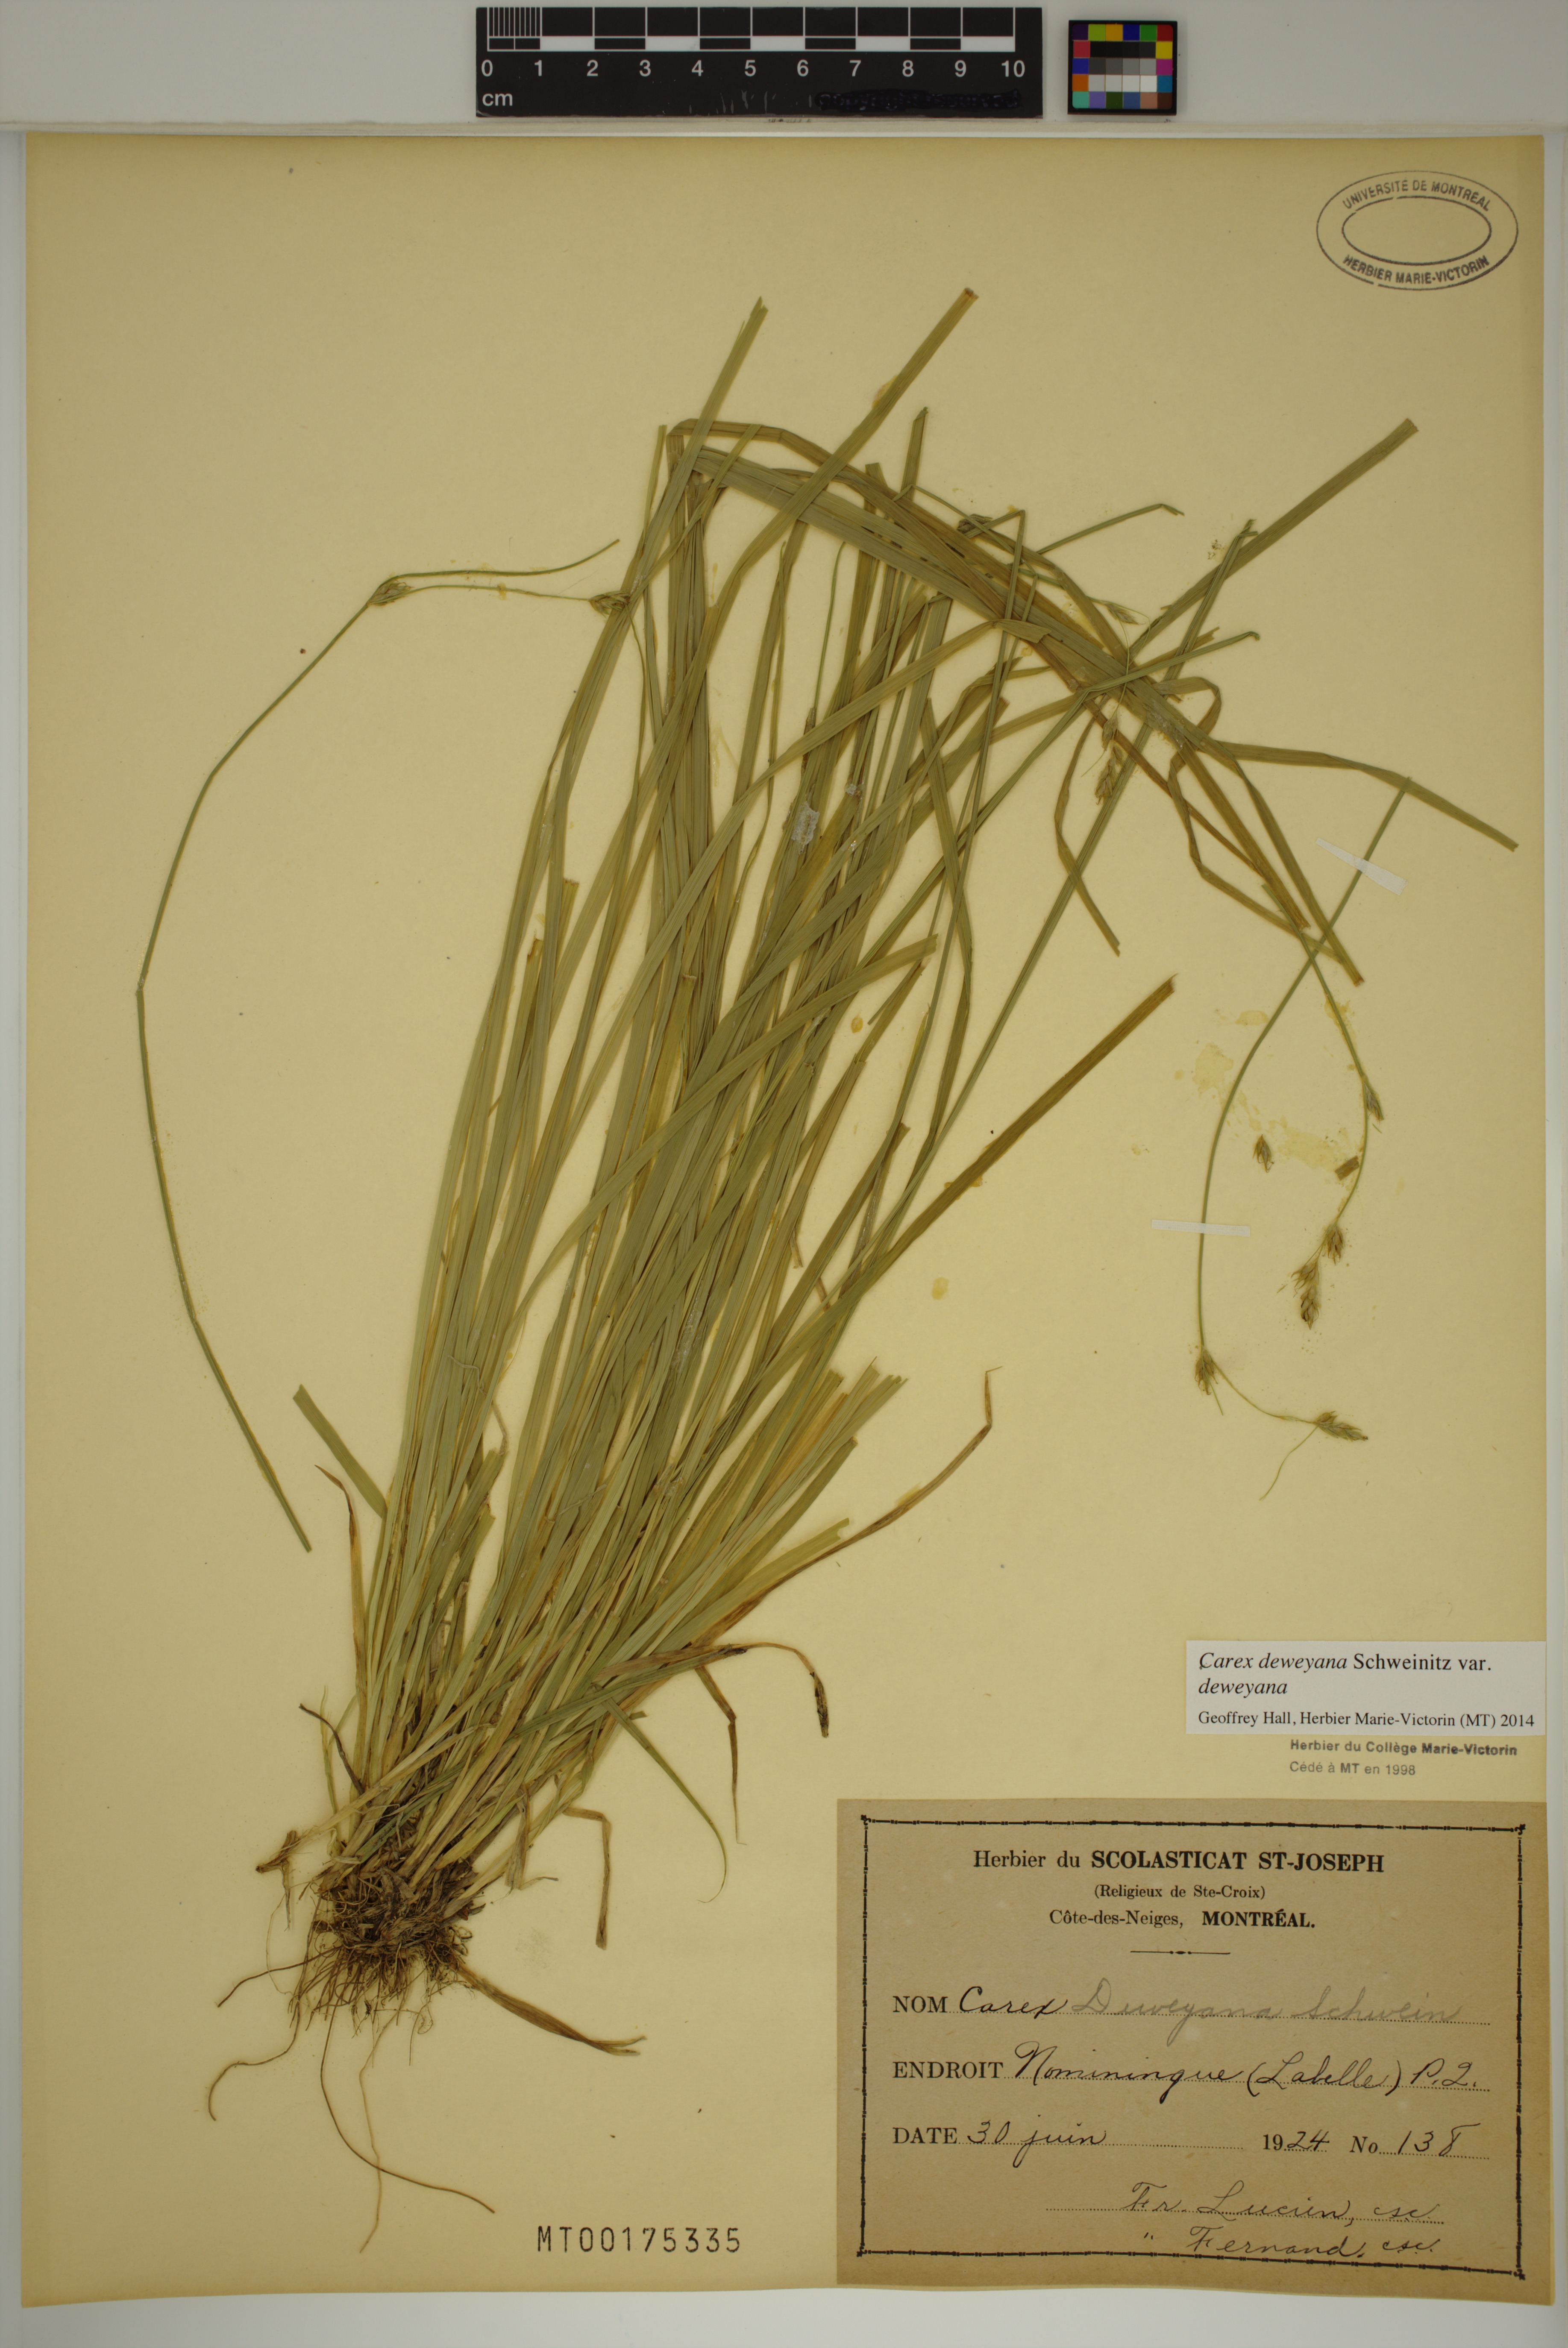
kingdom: Plantae
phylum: Tracheophyta
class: Liliopsida
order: Poales
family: Cyperaceae
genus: Carex
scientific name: Carex deweyana
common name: Dewey's sedge
